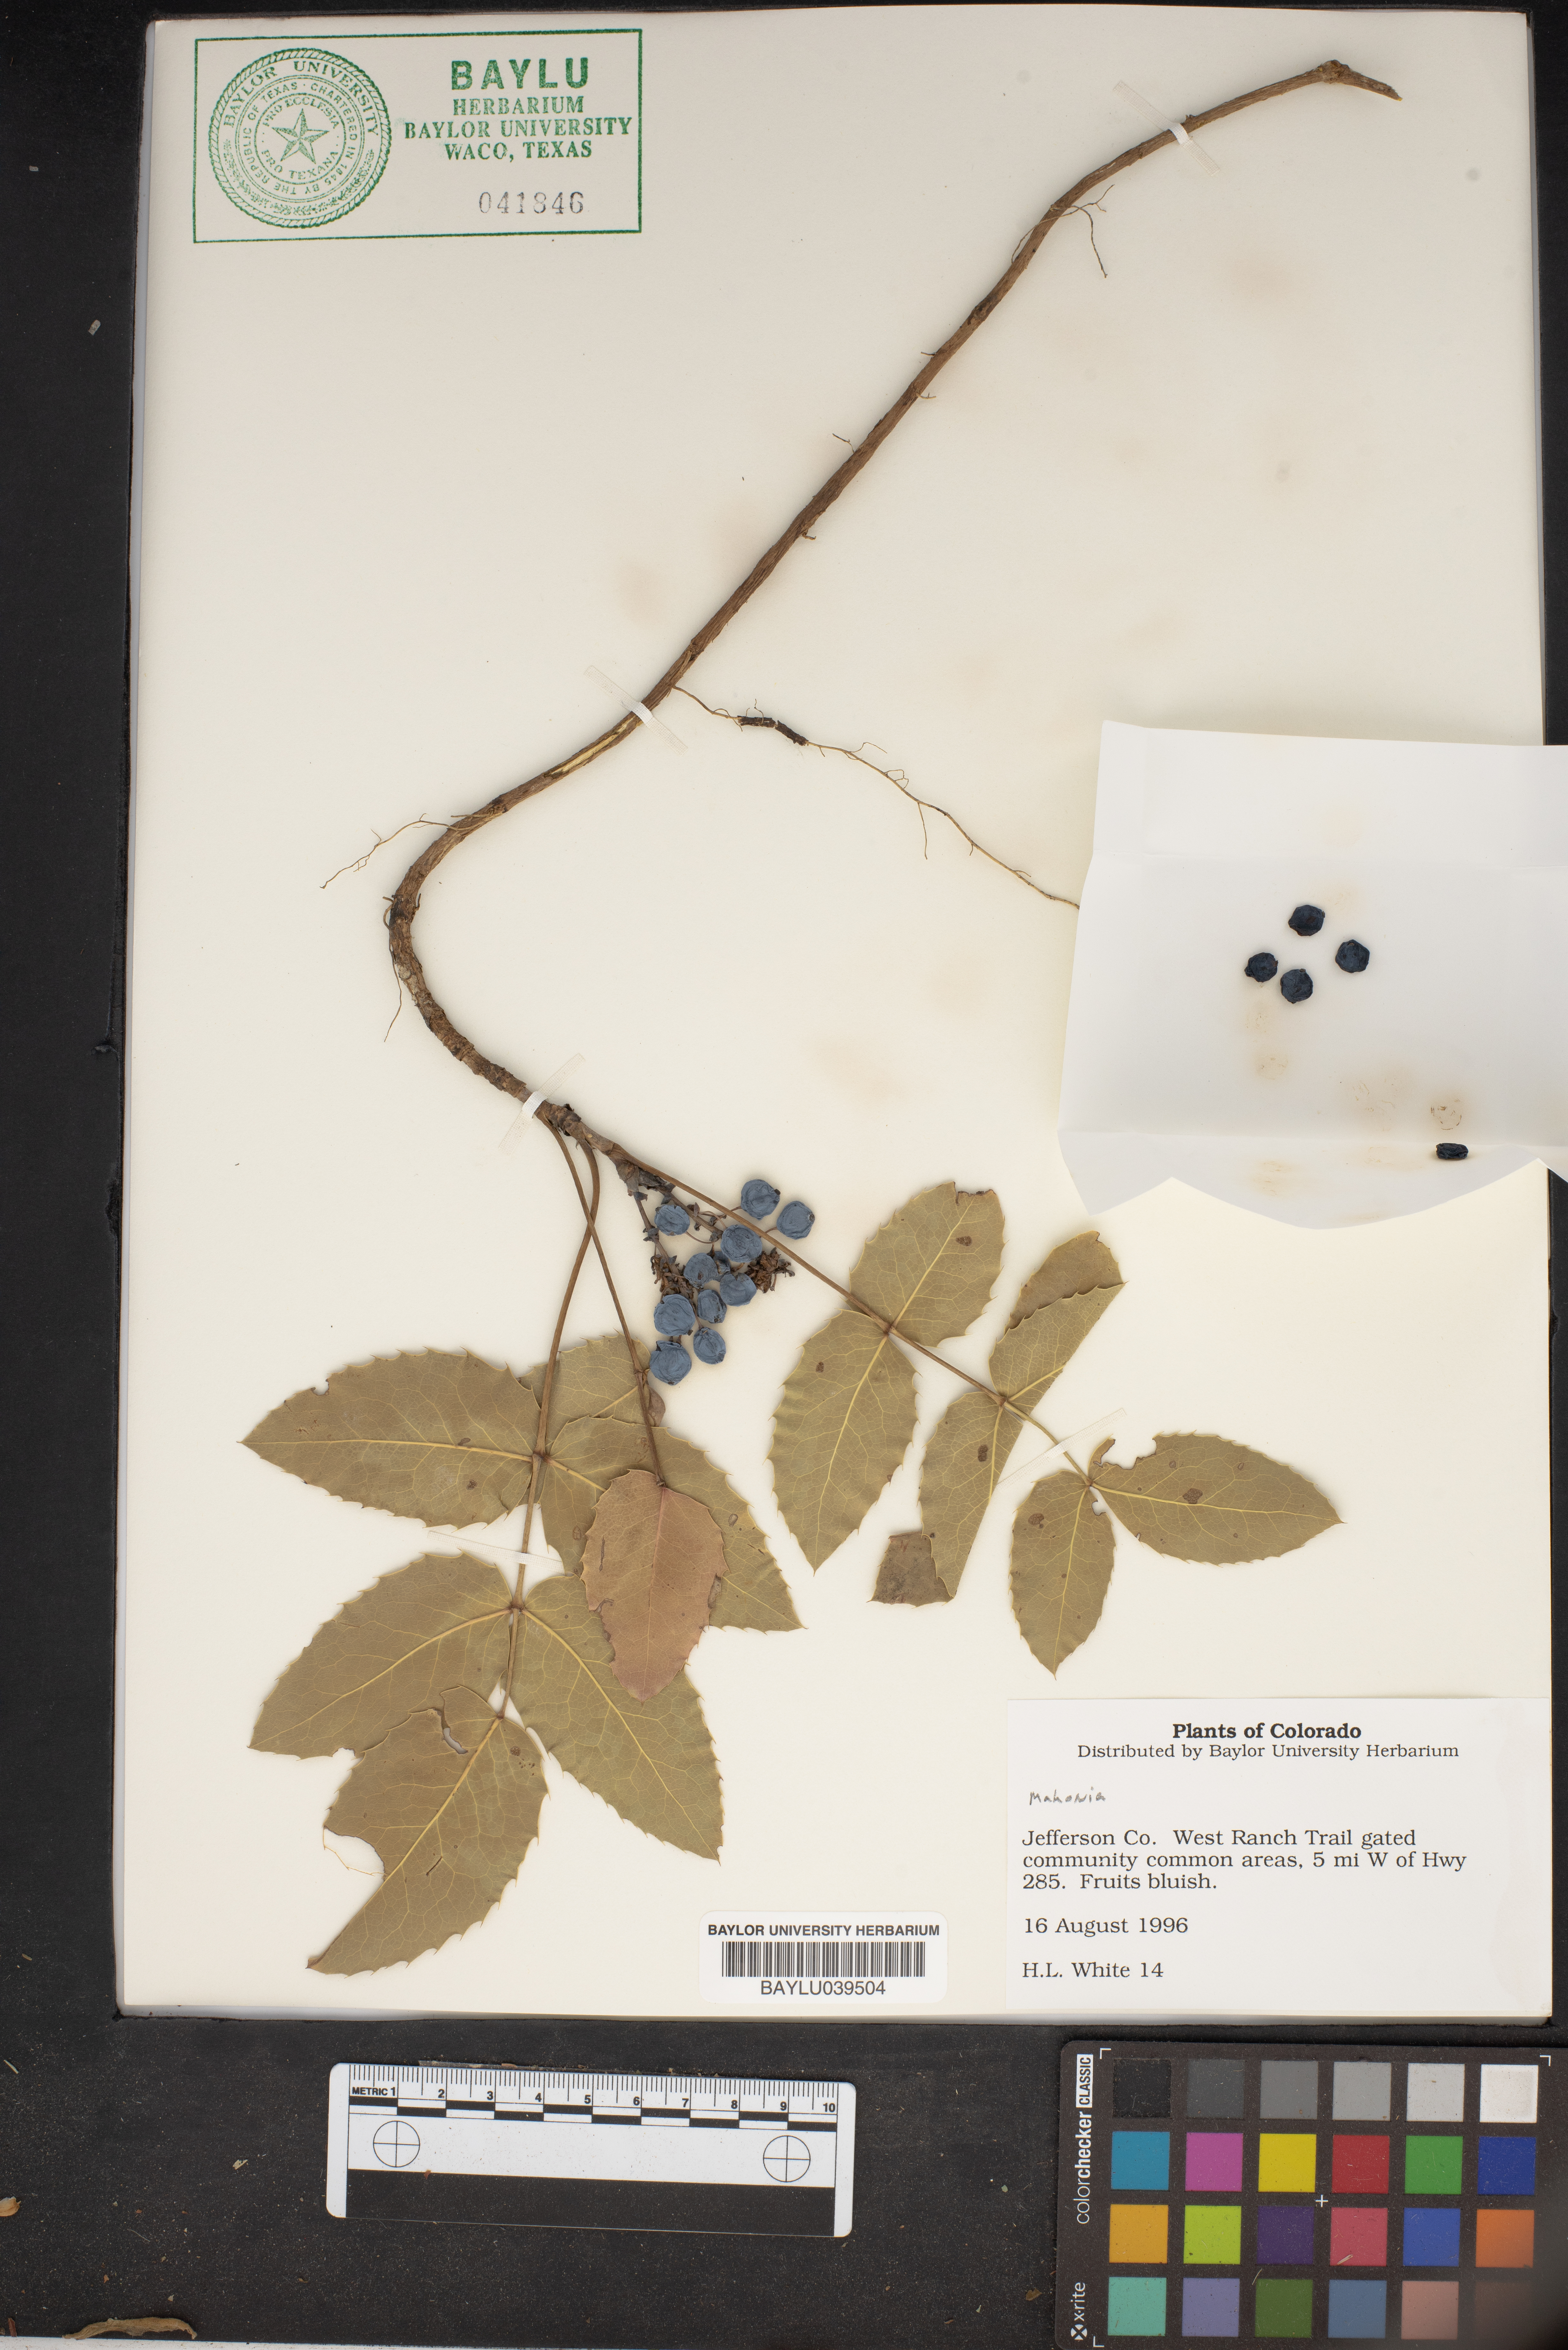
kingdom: Plantae
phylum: Tracheophyta
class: Magnoliopsida
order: Ranunculales
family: Berberidaceae
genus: Mahonia
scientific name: Mahonia
